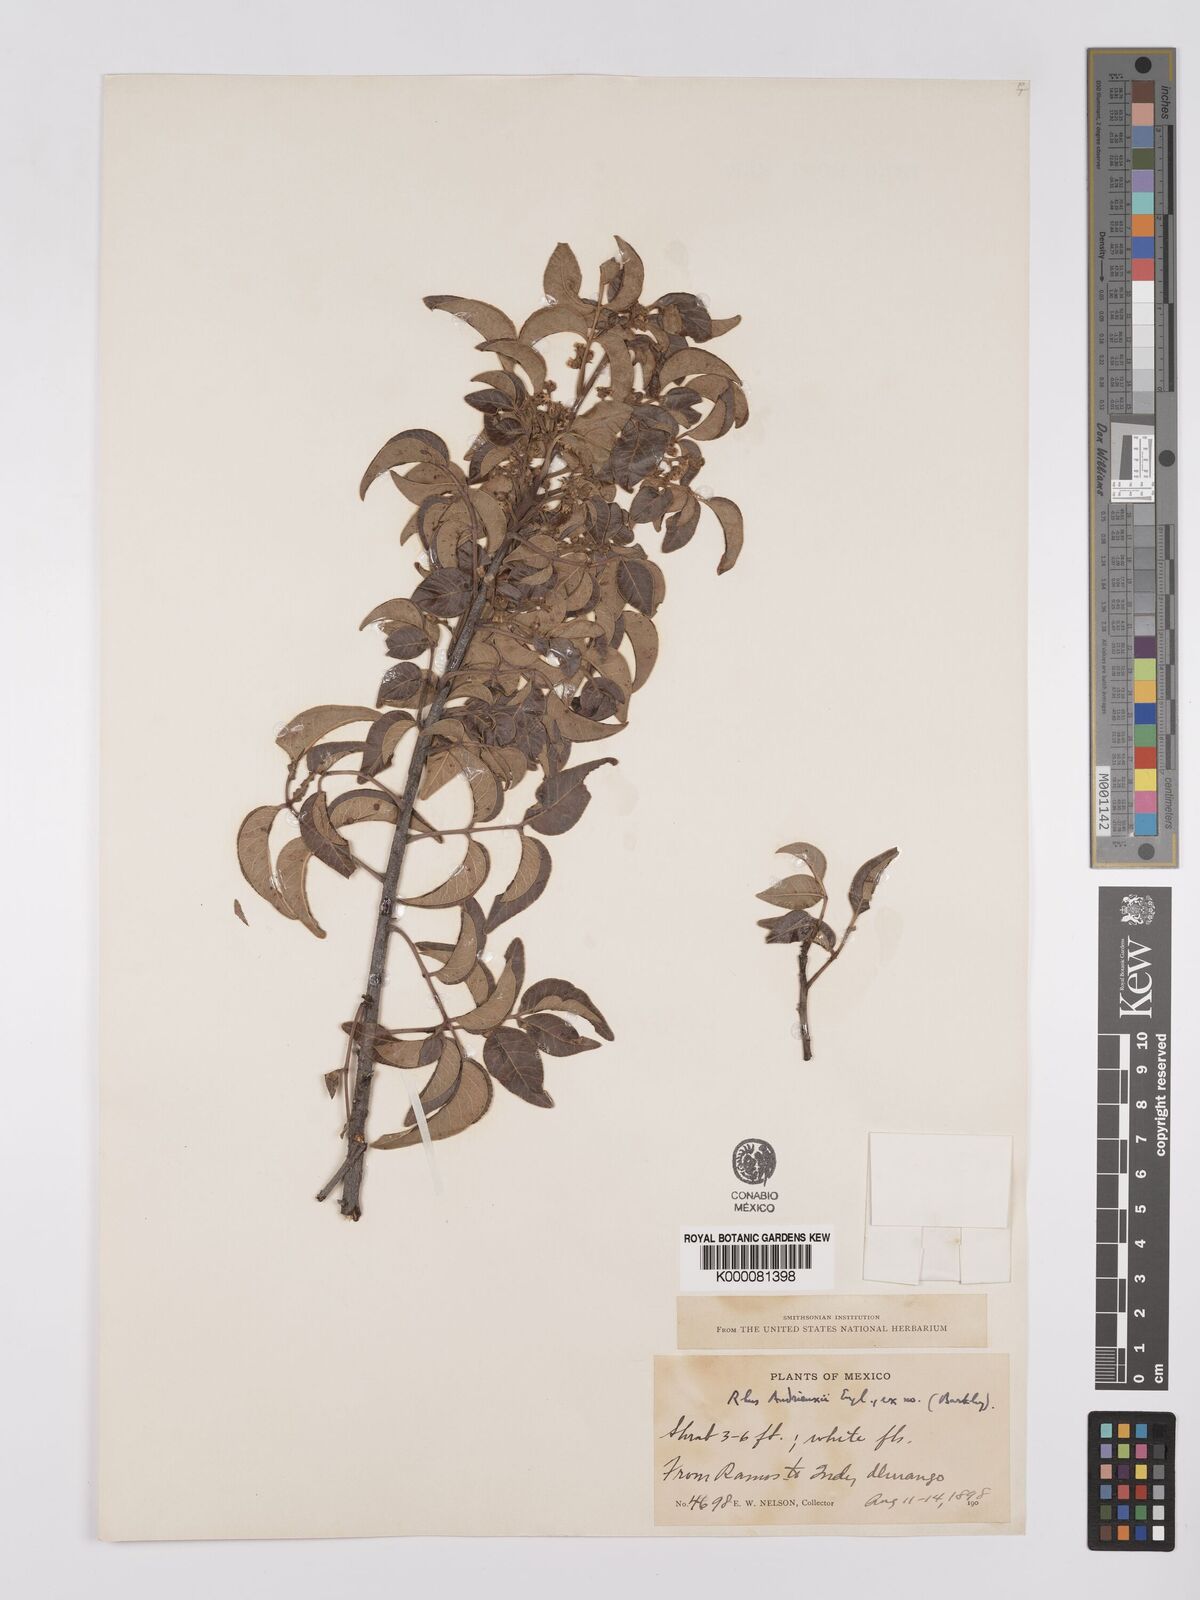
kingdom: Plantae
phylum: Tracheophyta
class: Magnoliopsida
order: Sapindales
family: Anacardiaceae
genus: Rhus
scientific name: Rhus schiedeana
